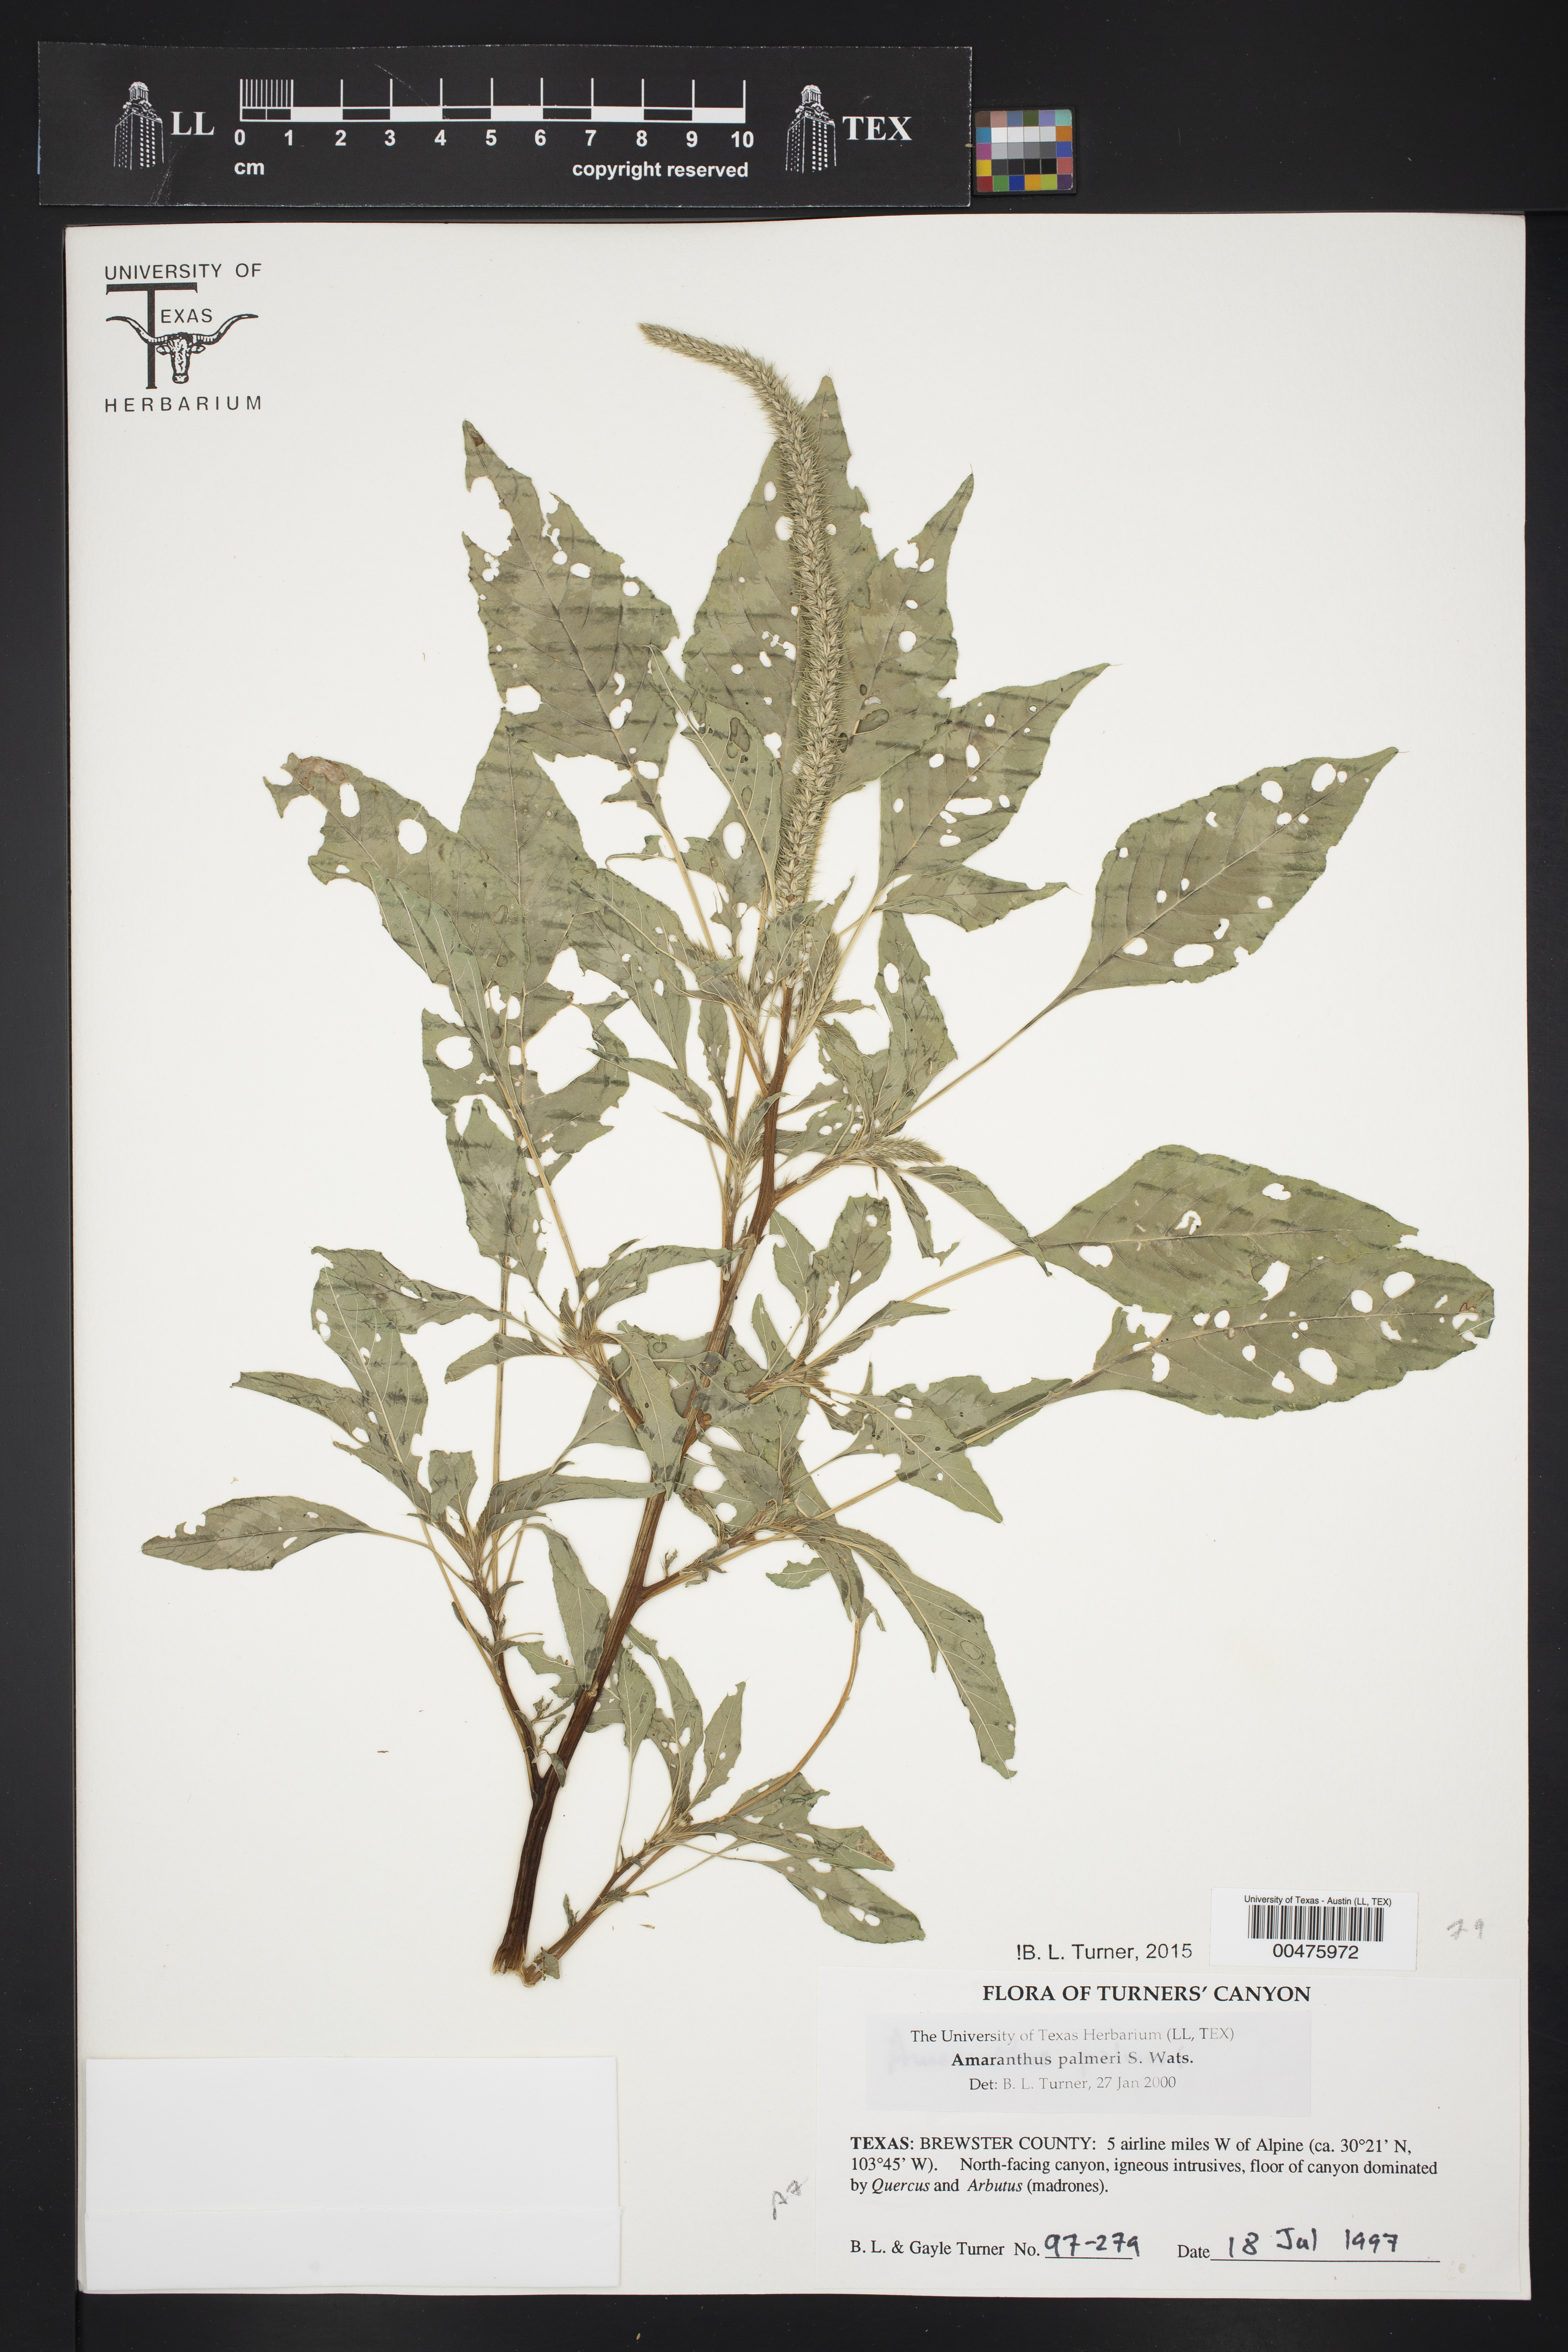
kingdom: Plantae
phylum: Tracheophyta
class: Magnoliopsida
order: Caryophyllales
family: Amaranthaceae
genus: Amaranthus
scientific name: Amaranthus palmeri
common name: Dioecious amaranth
